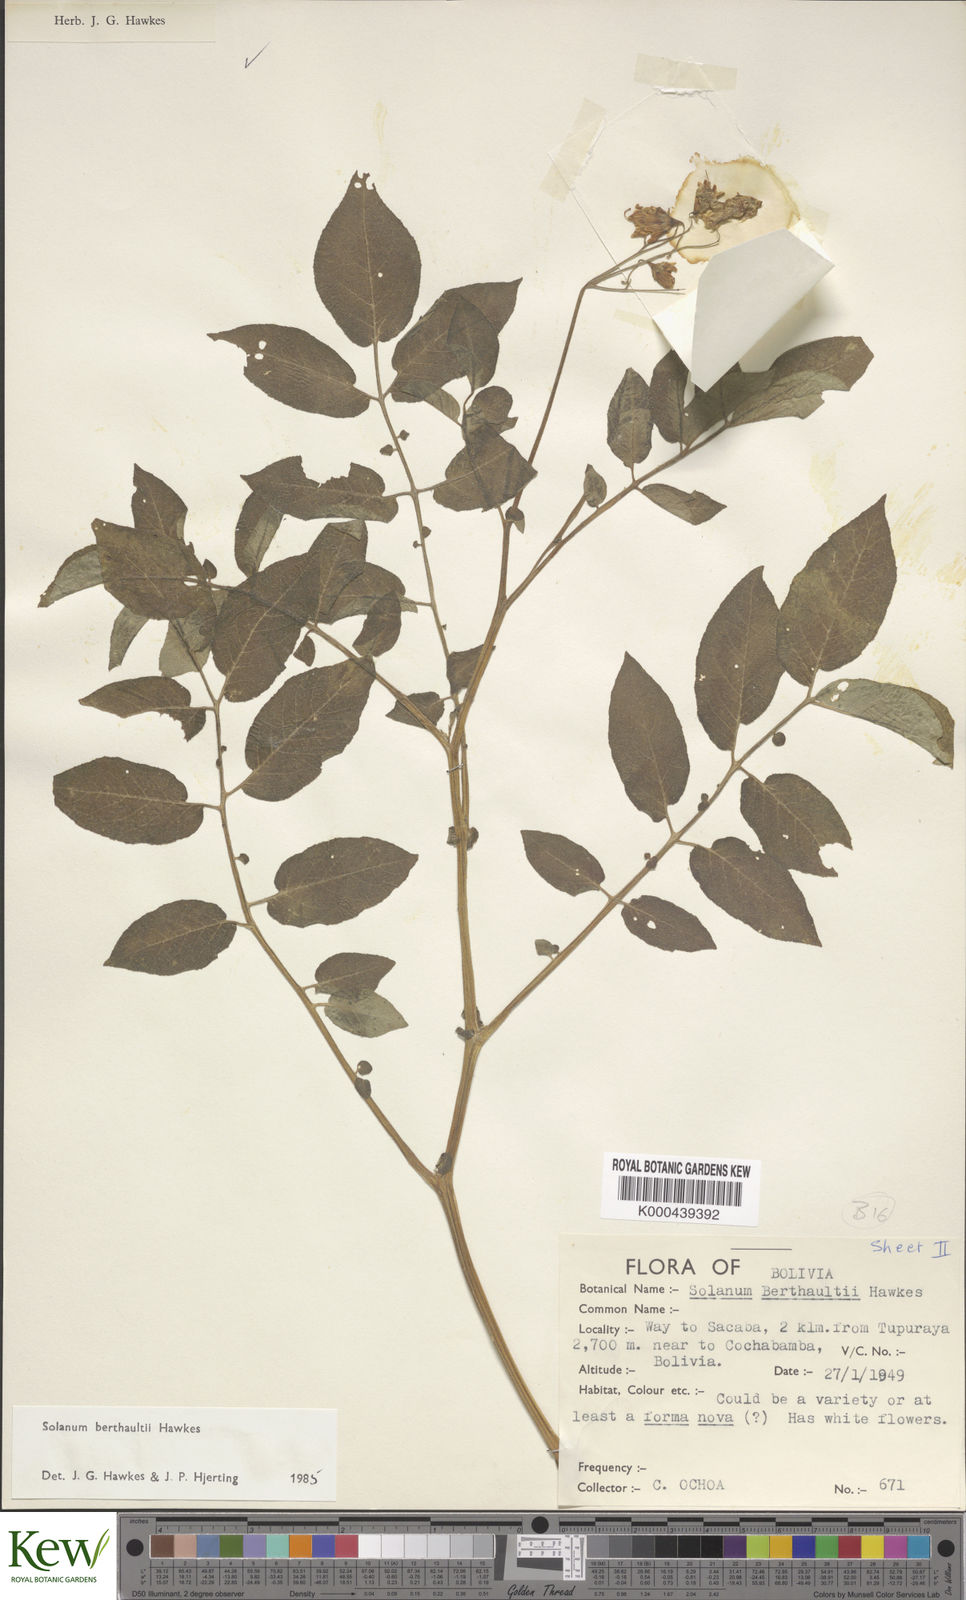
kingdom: Plantae
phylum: Tracheophyta
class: Magnoliopsida
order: Solanales
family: Solanaceae
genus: Solanum
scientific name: Solanum berthaultii
